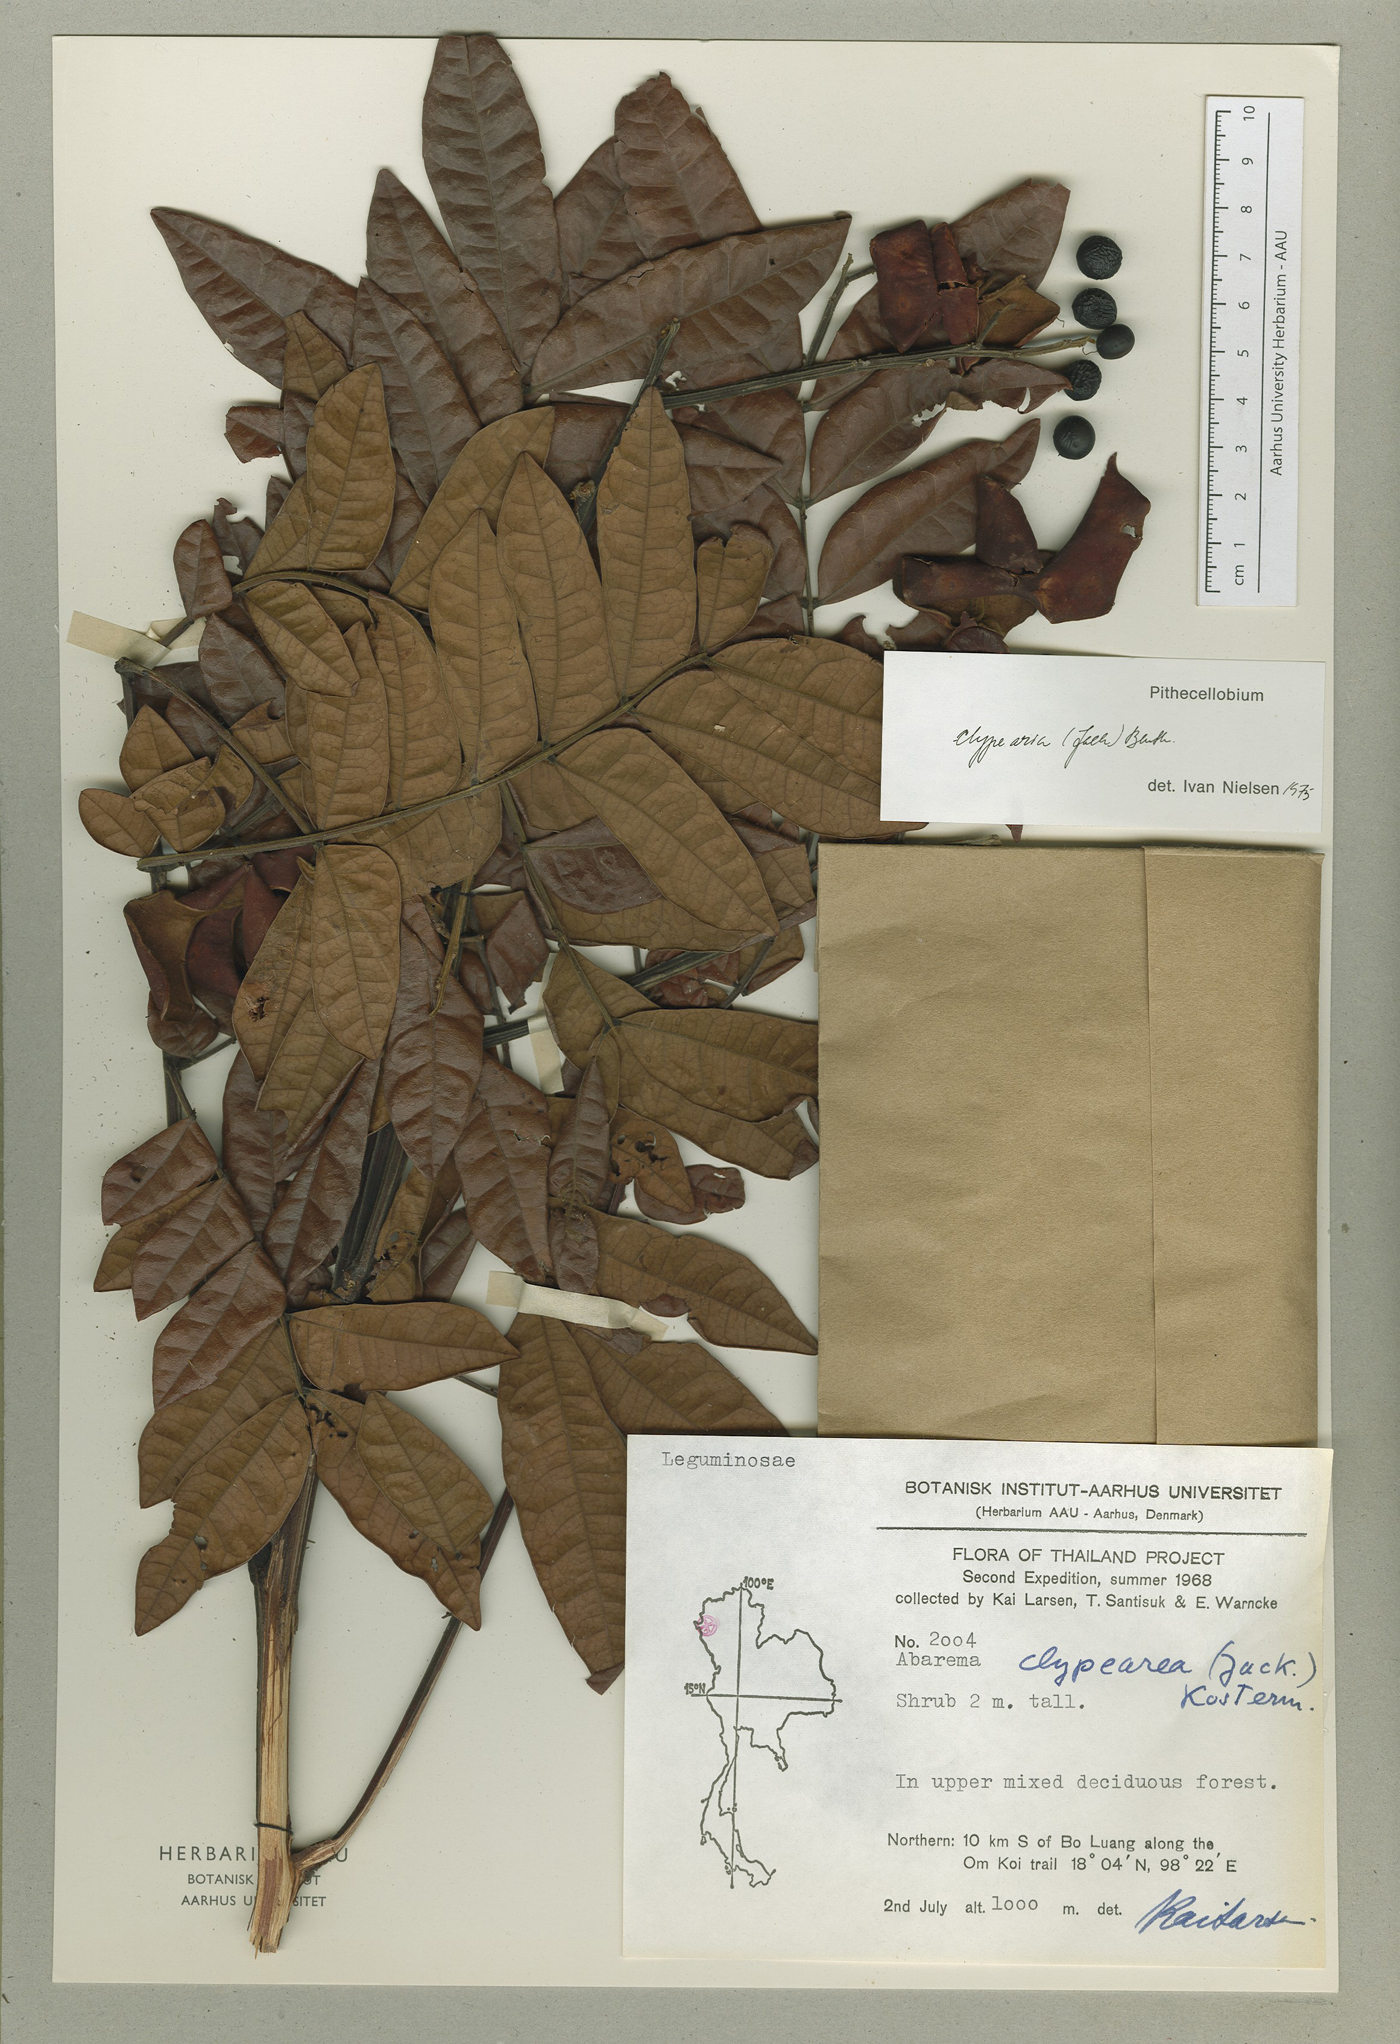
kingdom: Plantae
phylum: Tracheophyta
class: Magnoliopsida
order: Fabales
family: Fabaceae
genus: Archidendron
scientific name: Archidendron clypearia
